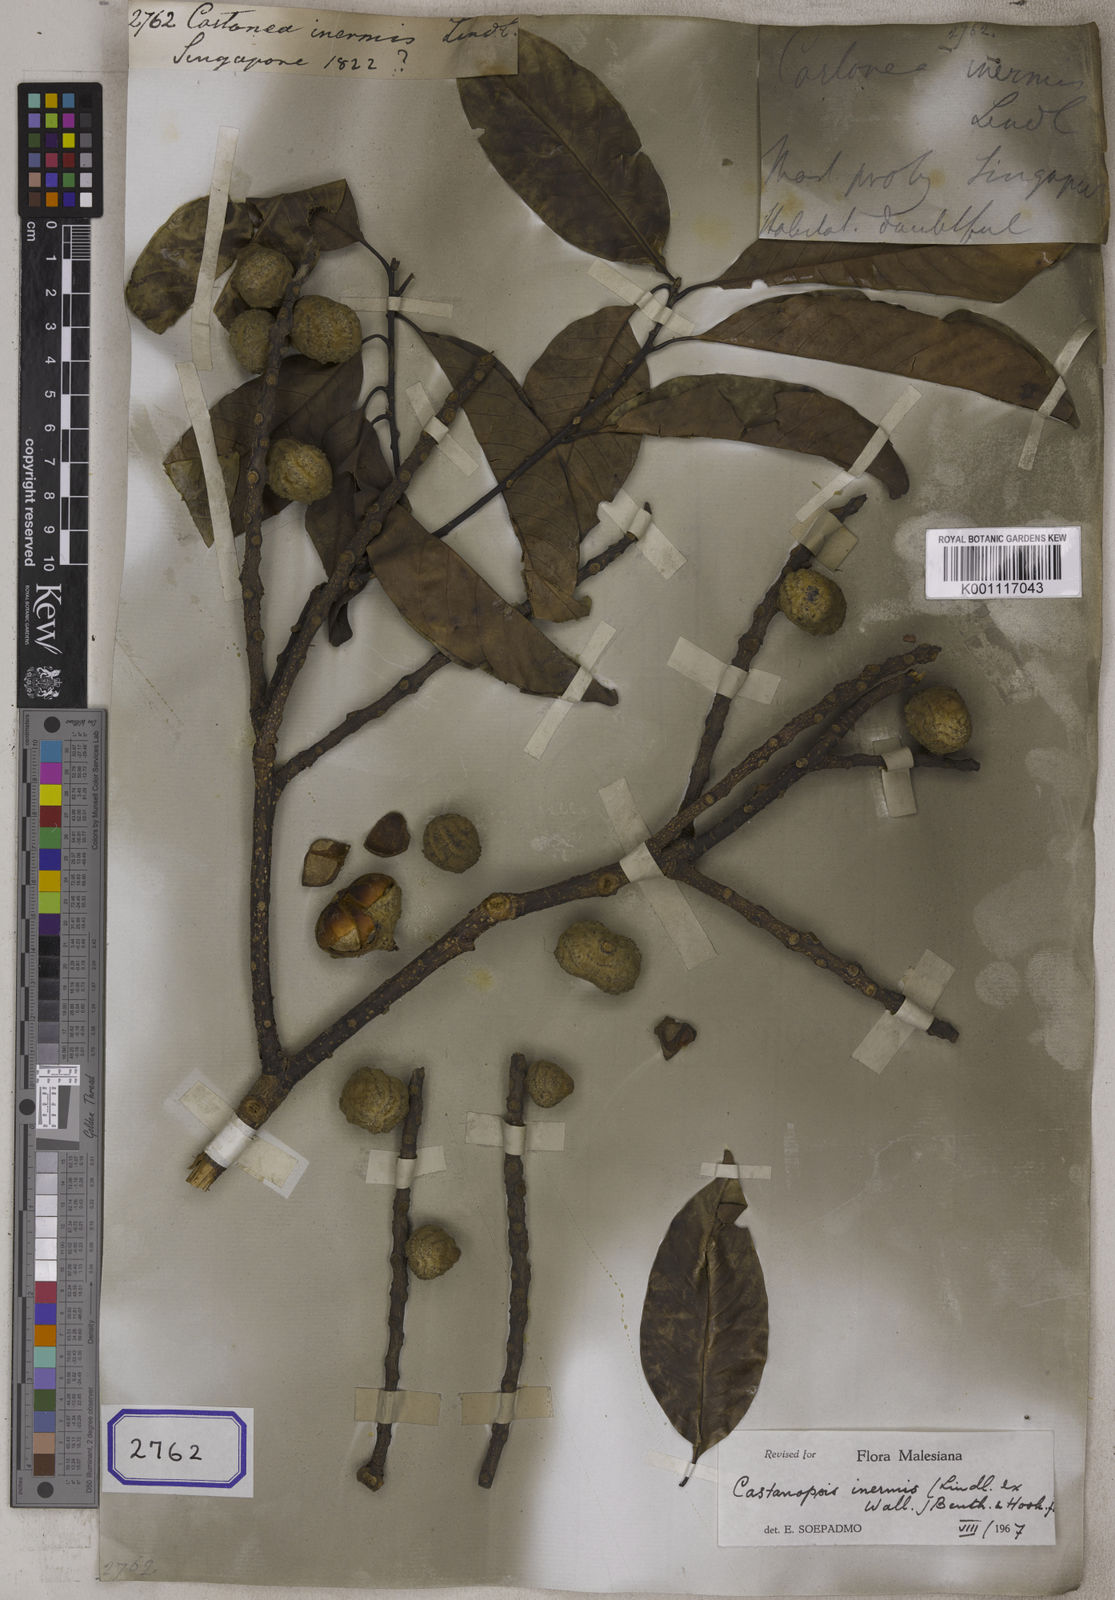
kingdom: Plantae
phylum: Tracheophyta
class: Magnoliopsida
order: Fagales
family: Fagaceae
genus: Castanopsis
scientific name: Castanopsis inermis
